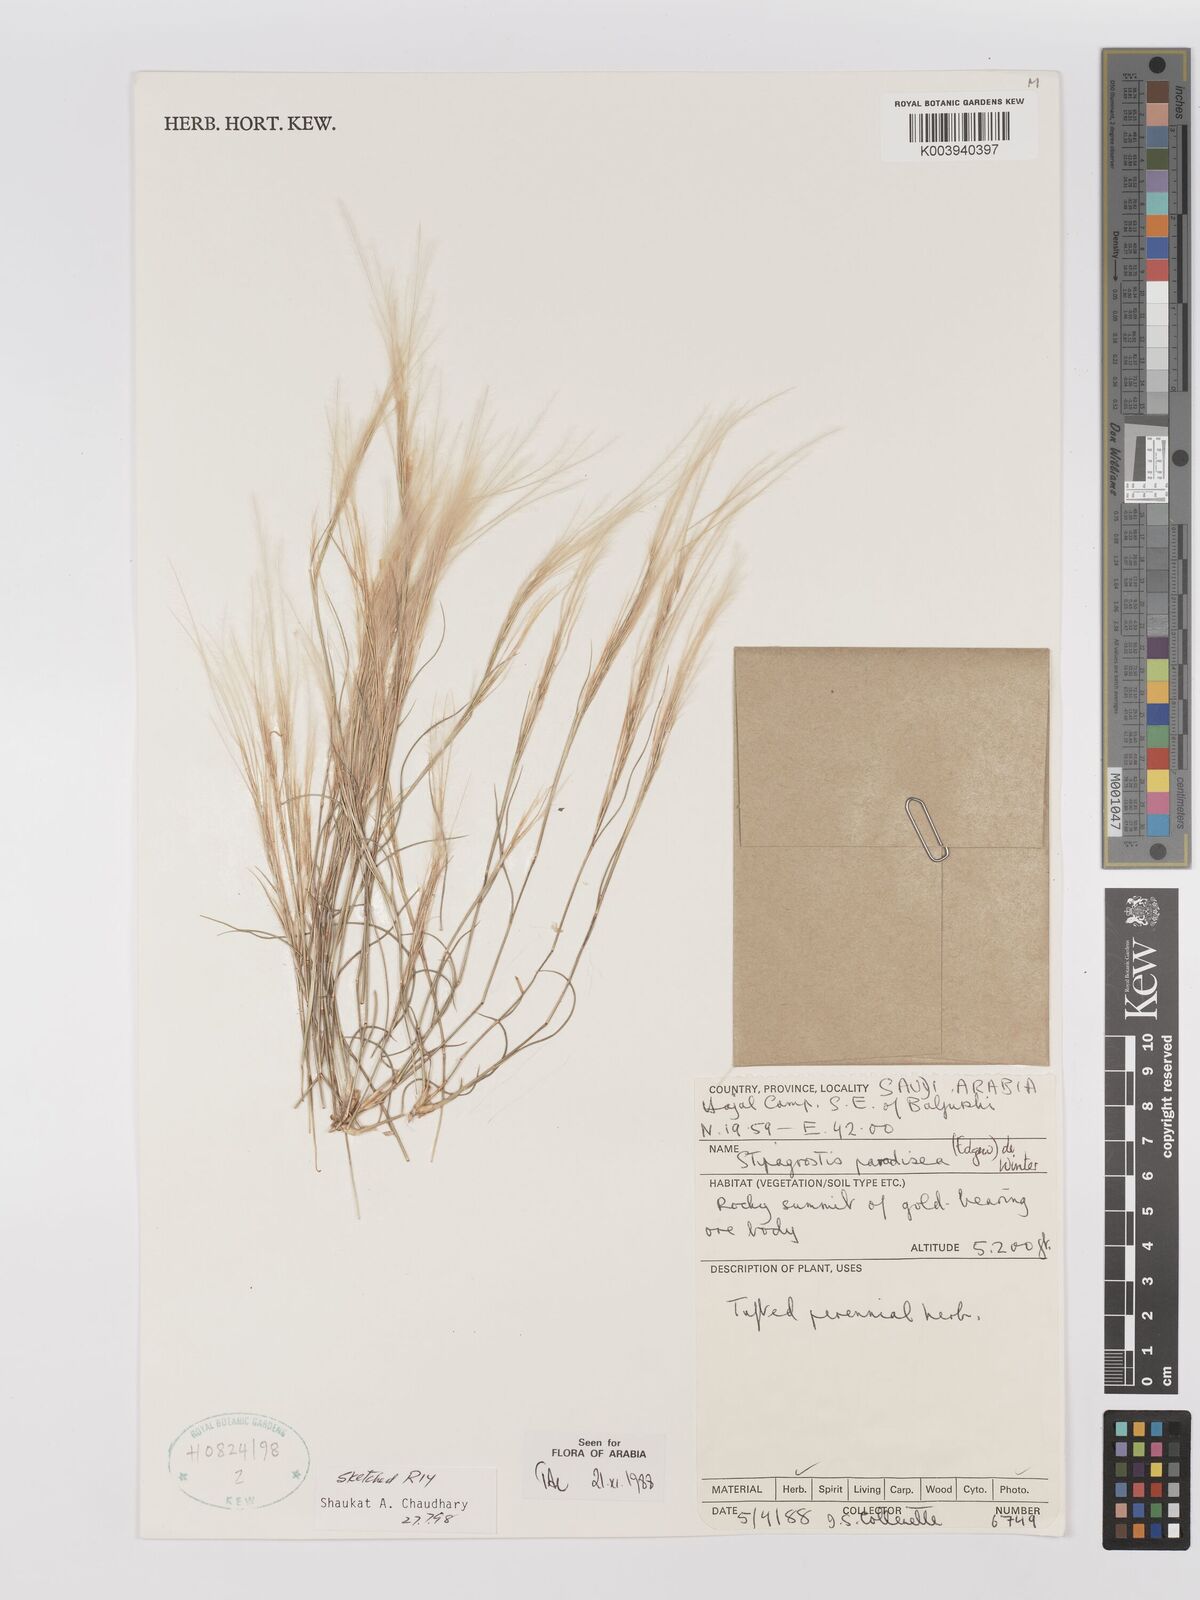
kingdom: Plantae
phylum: Tracheophyta
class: Liliopsida
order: Poales
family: Poaceae
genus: Stipagrostis
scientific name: Stipagrostis paradisea
